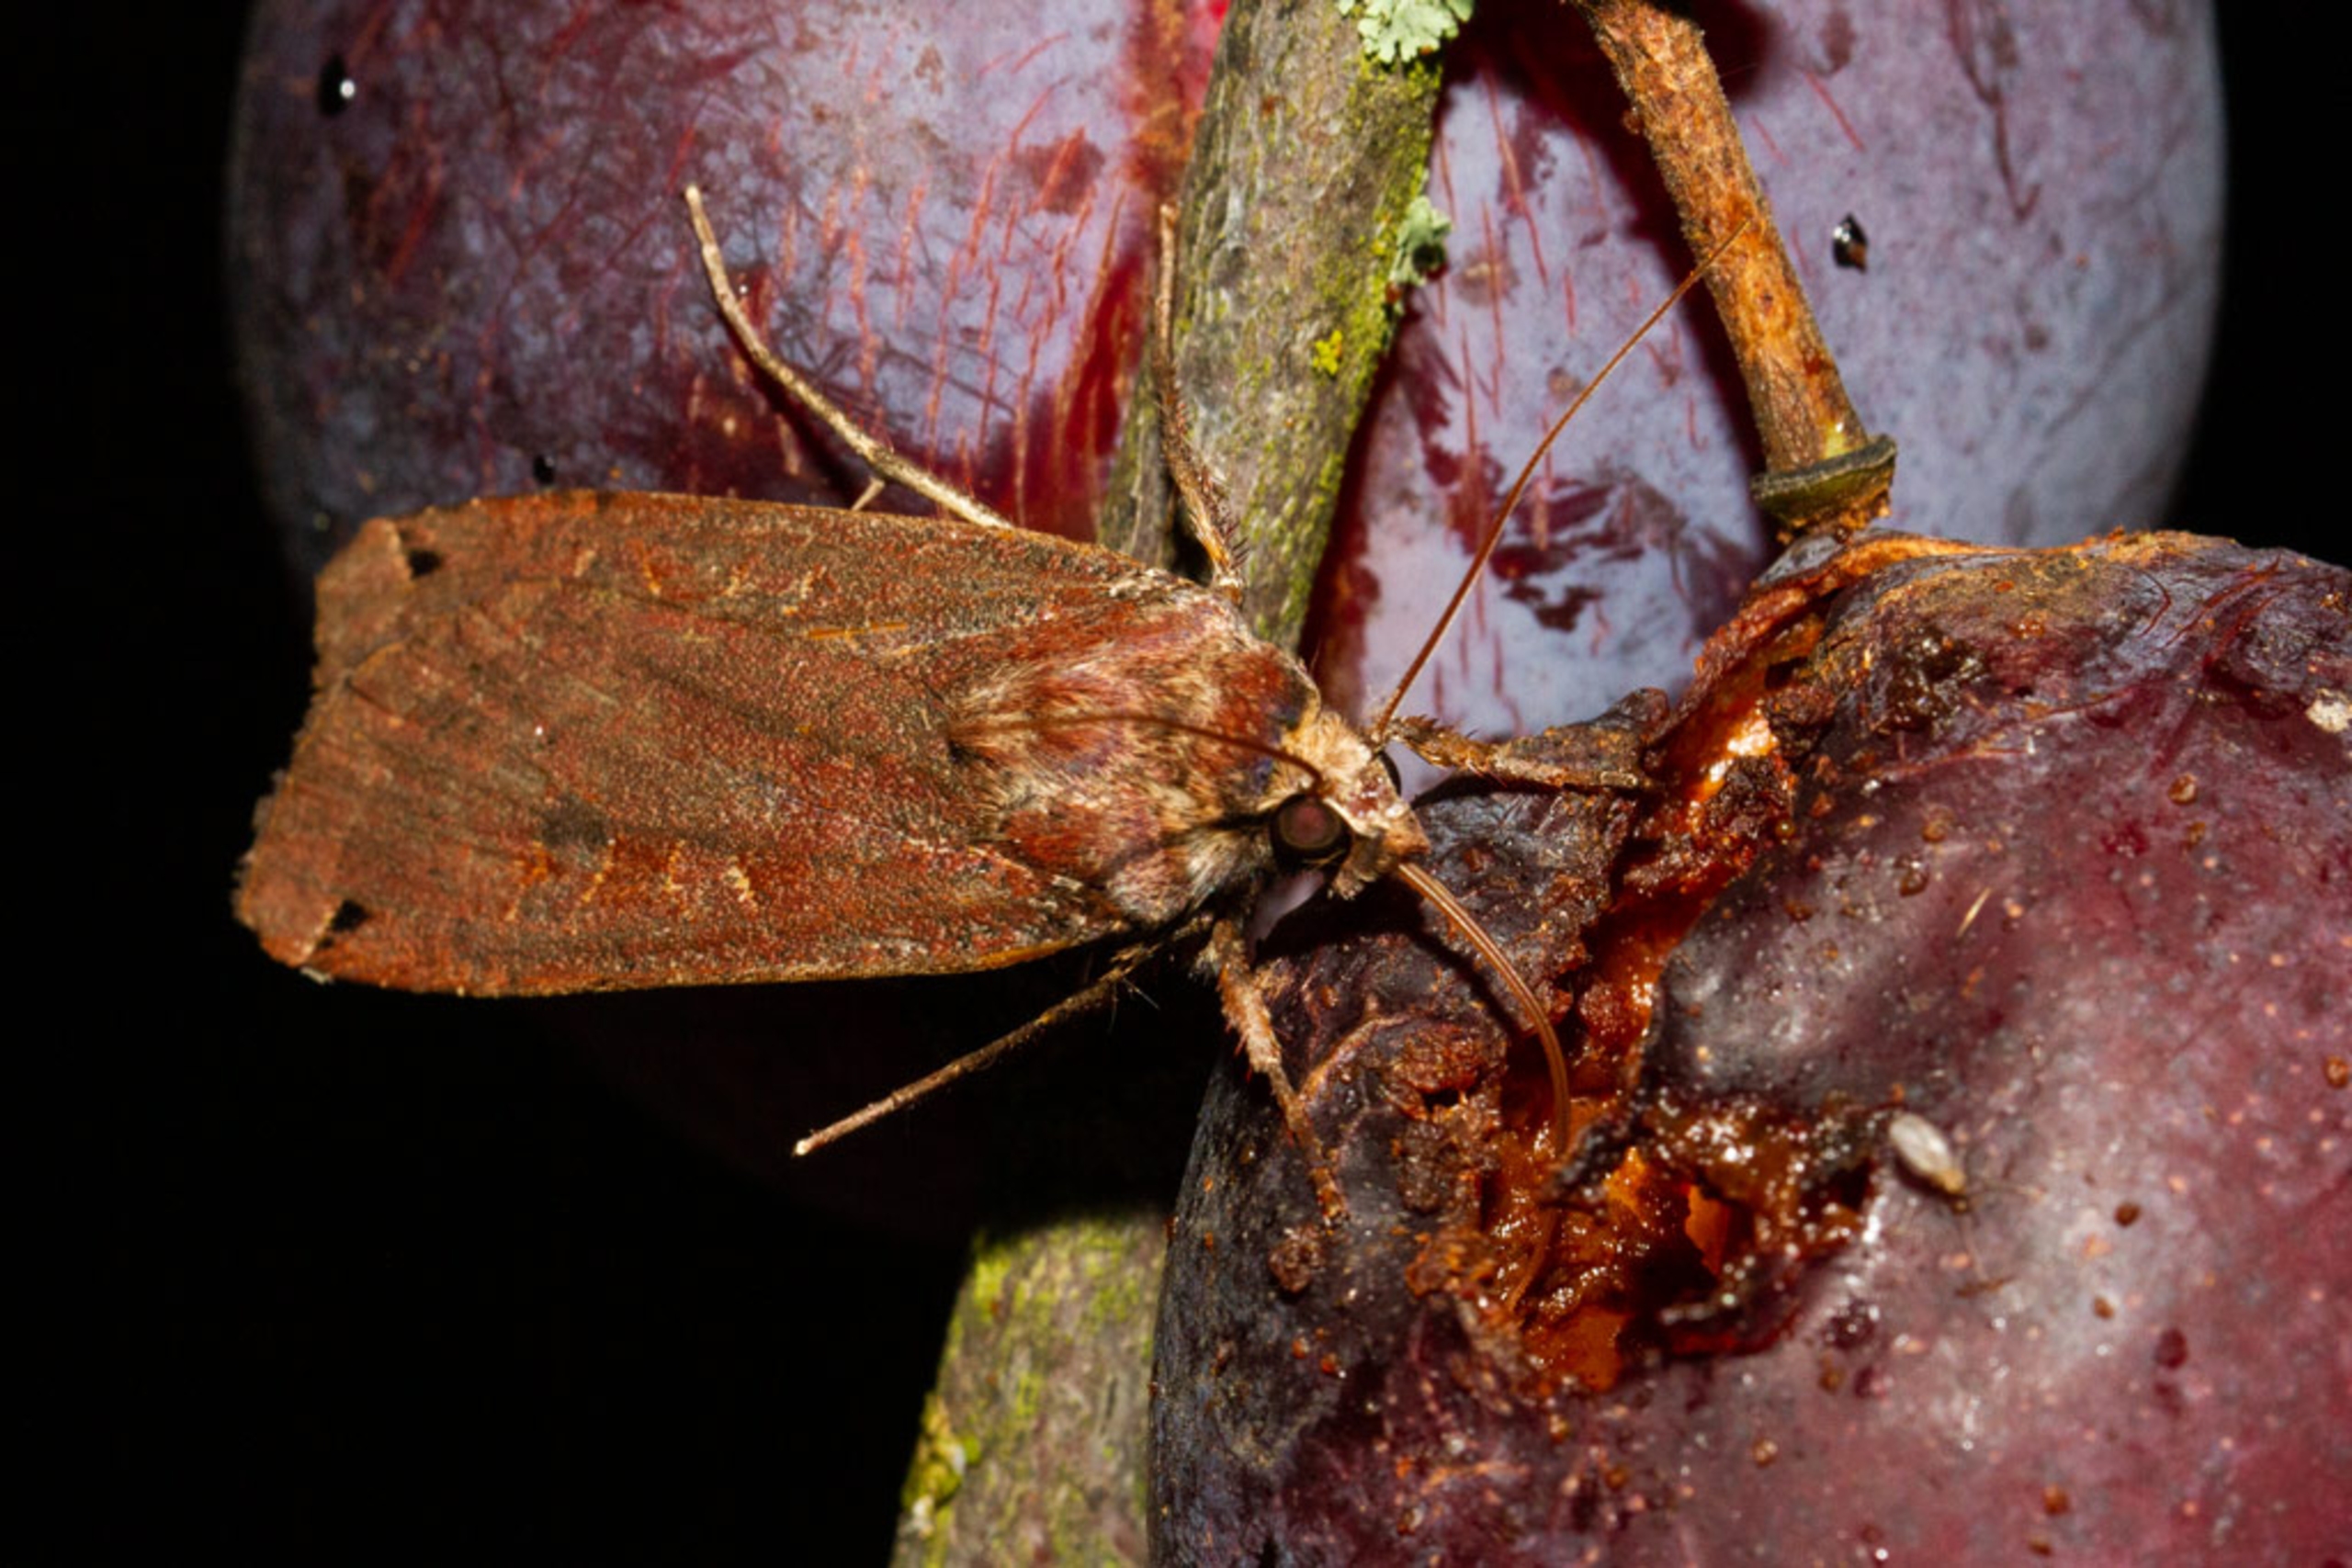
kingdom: Animalia
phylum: Arthropoda
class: Insecta
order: Lepidoptera
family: Noctuidae
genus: Noctua
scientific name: Noctua pronuba
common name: Stor smutugle
